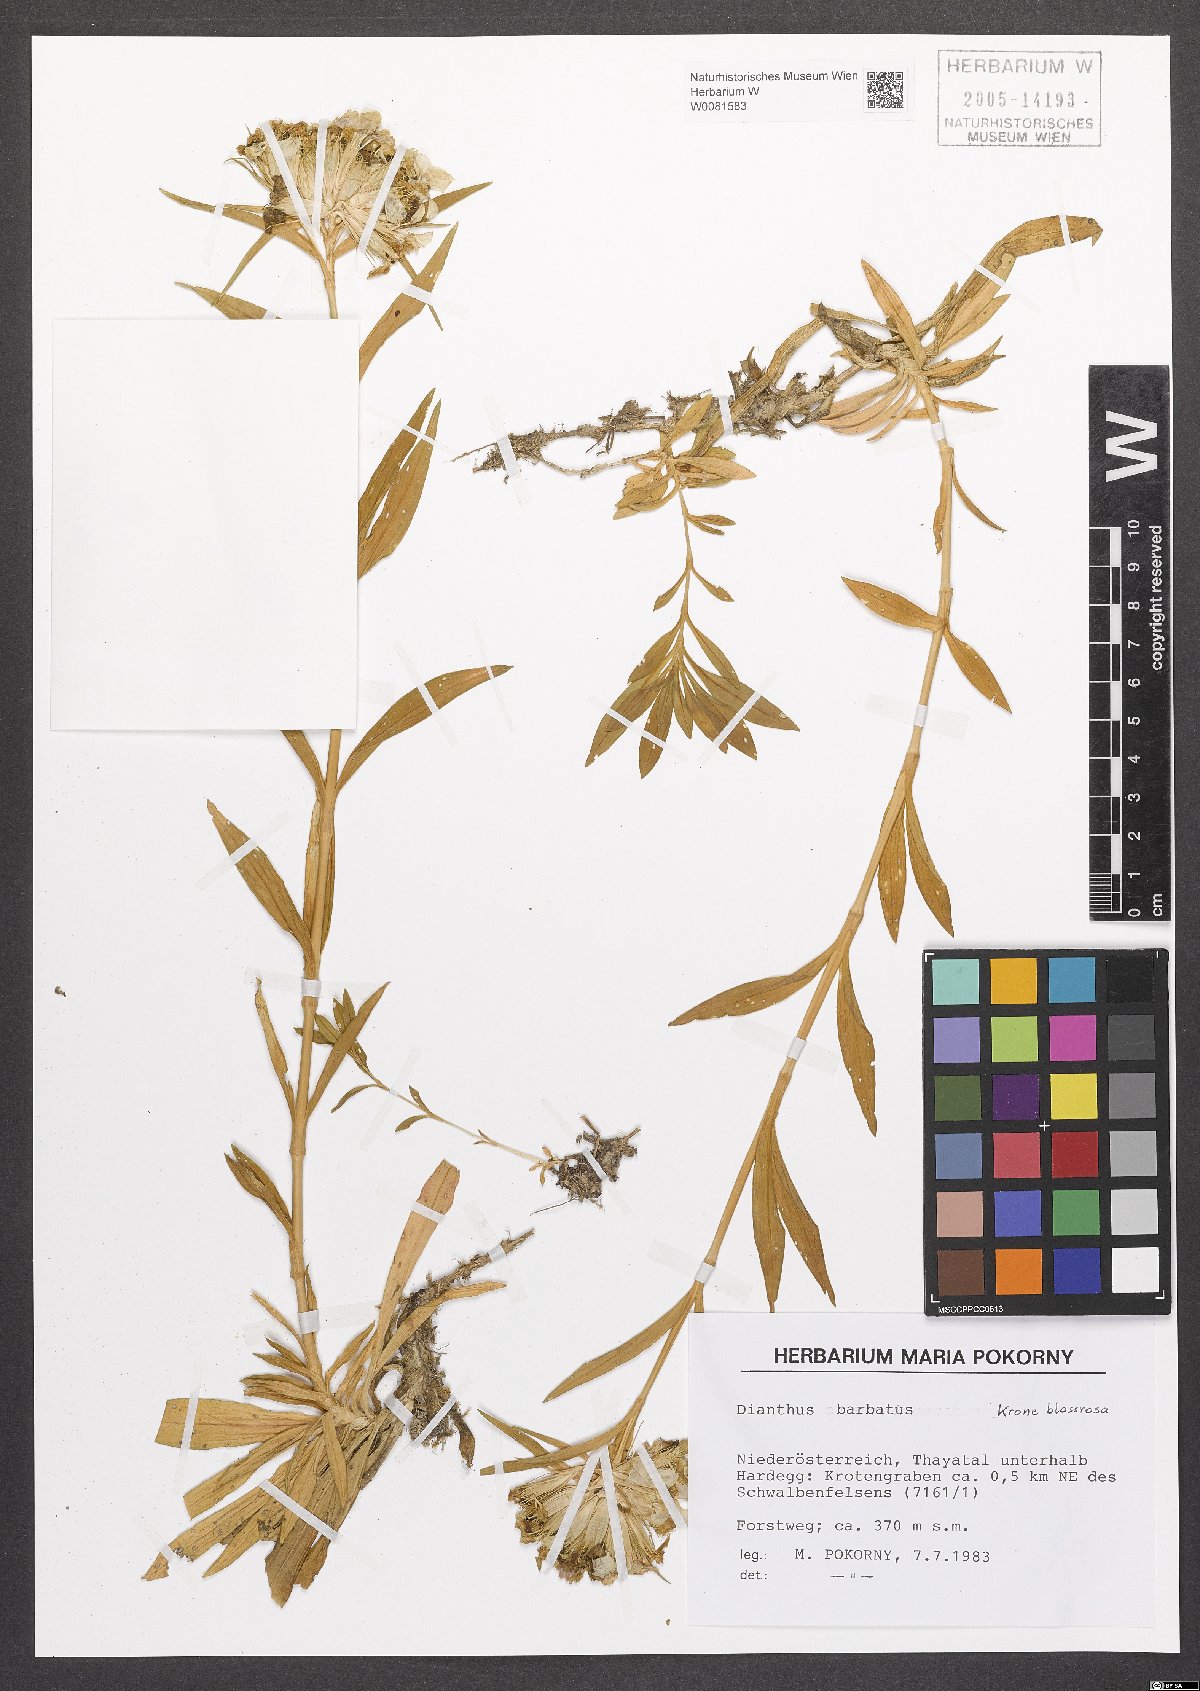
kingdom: Plantae
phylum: Tracheophyta
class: Magnoliopsida
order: Caryophyllales
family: Caryophyllaceae
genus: Dianthus
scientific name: Dianthus barbatus
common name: Sweet-william
